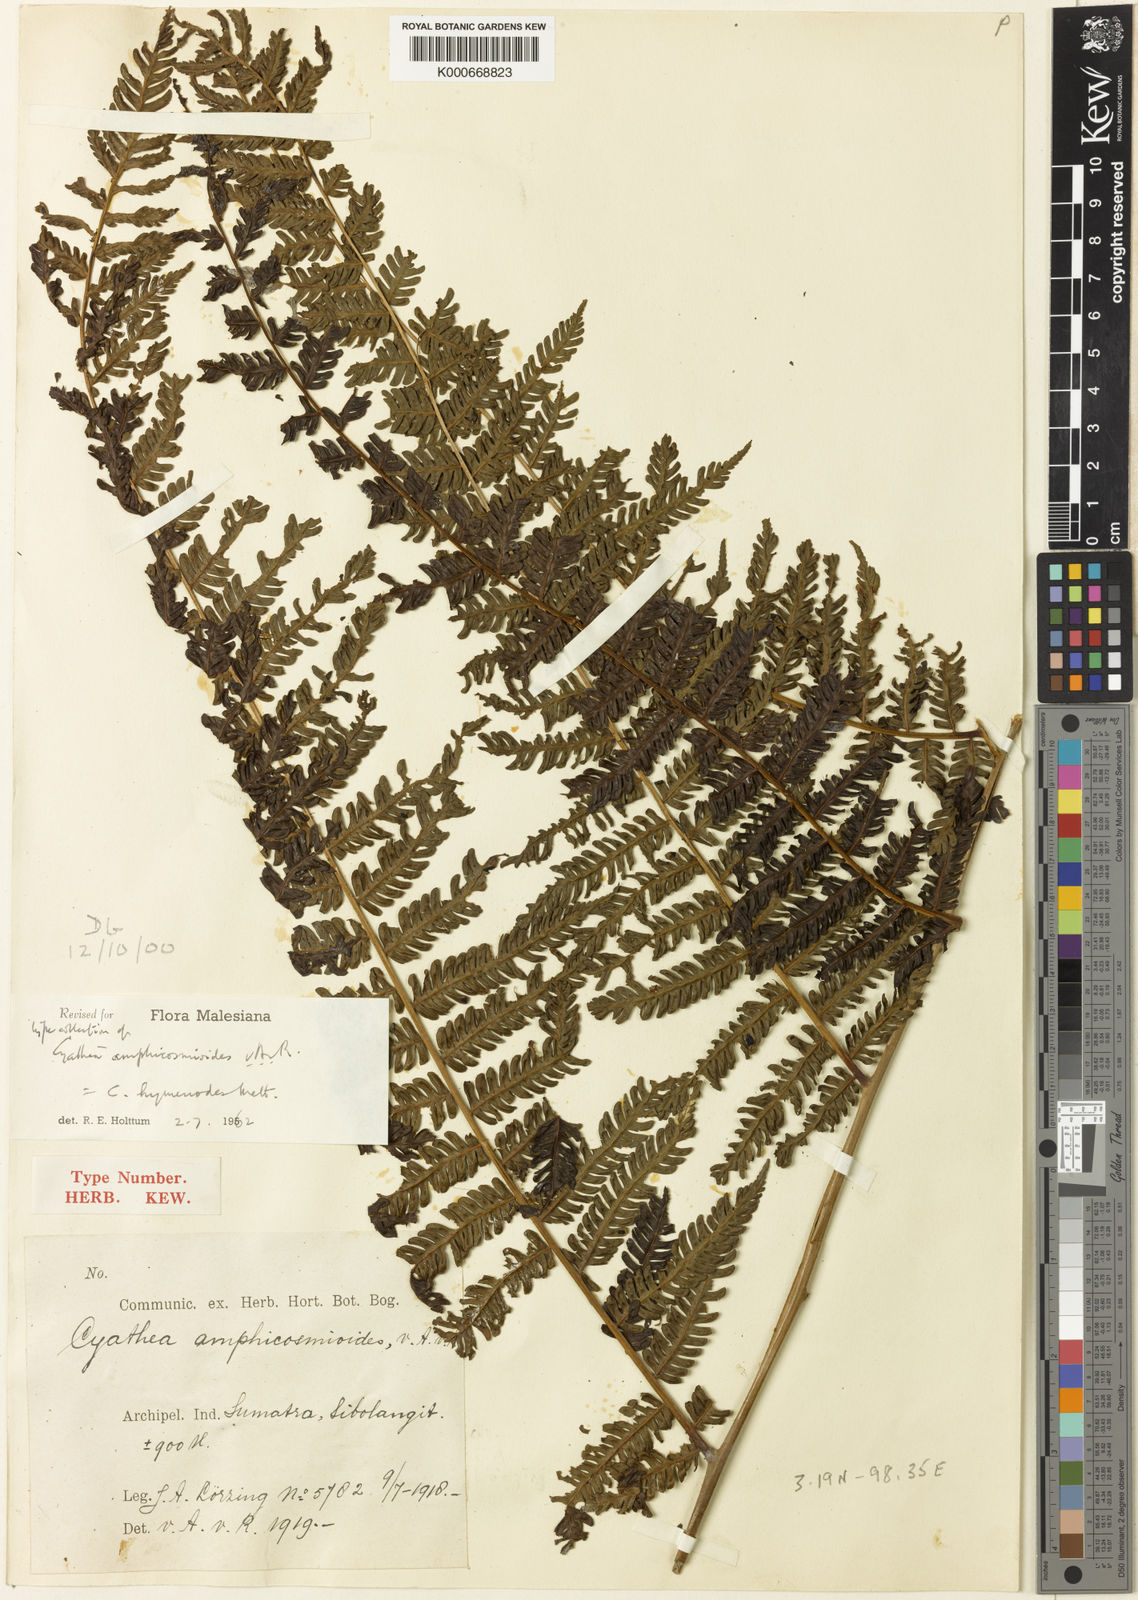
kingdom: Plantae
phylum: Tracheophyta
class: Polypodiopsida
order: Cyatheales
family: Cyatheaceae
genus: Alsophila
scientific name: Alsophila hymenodes
